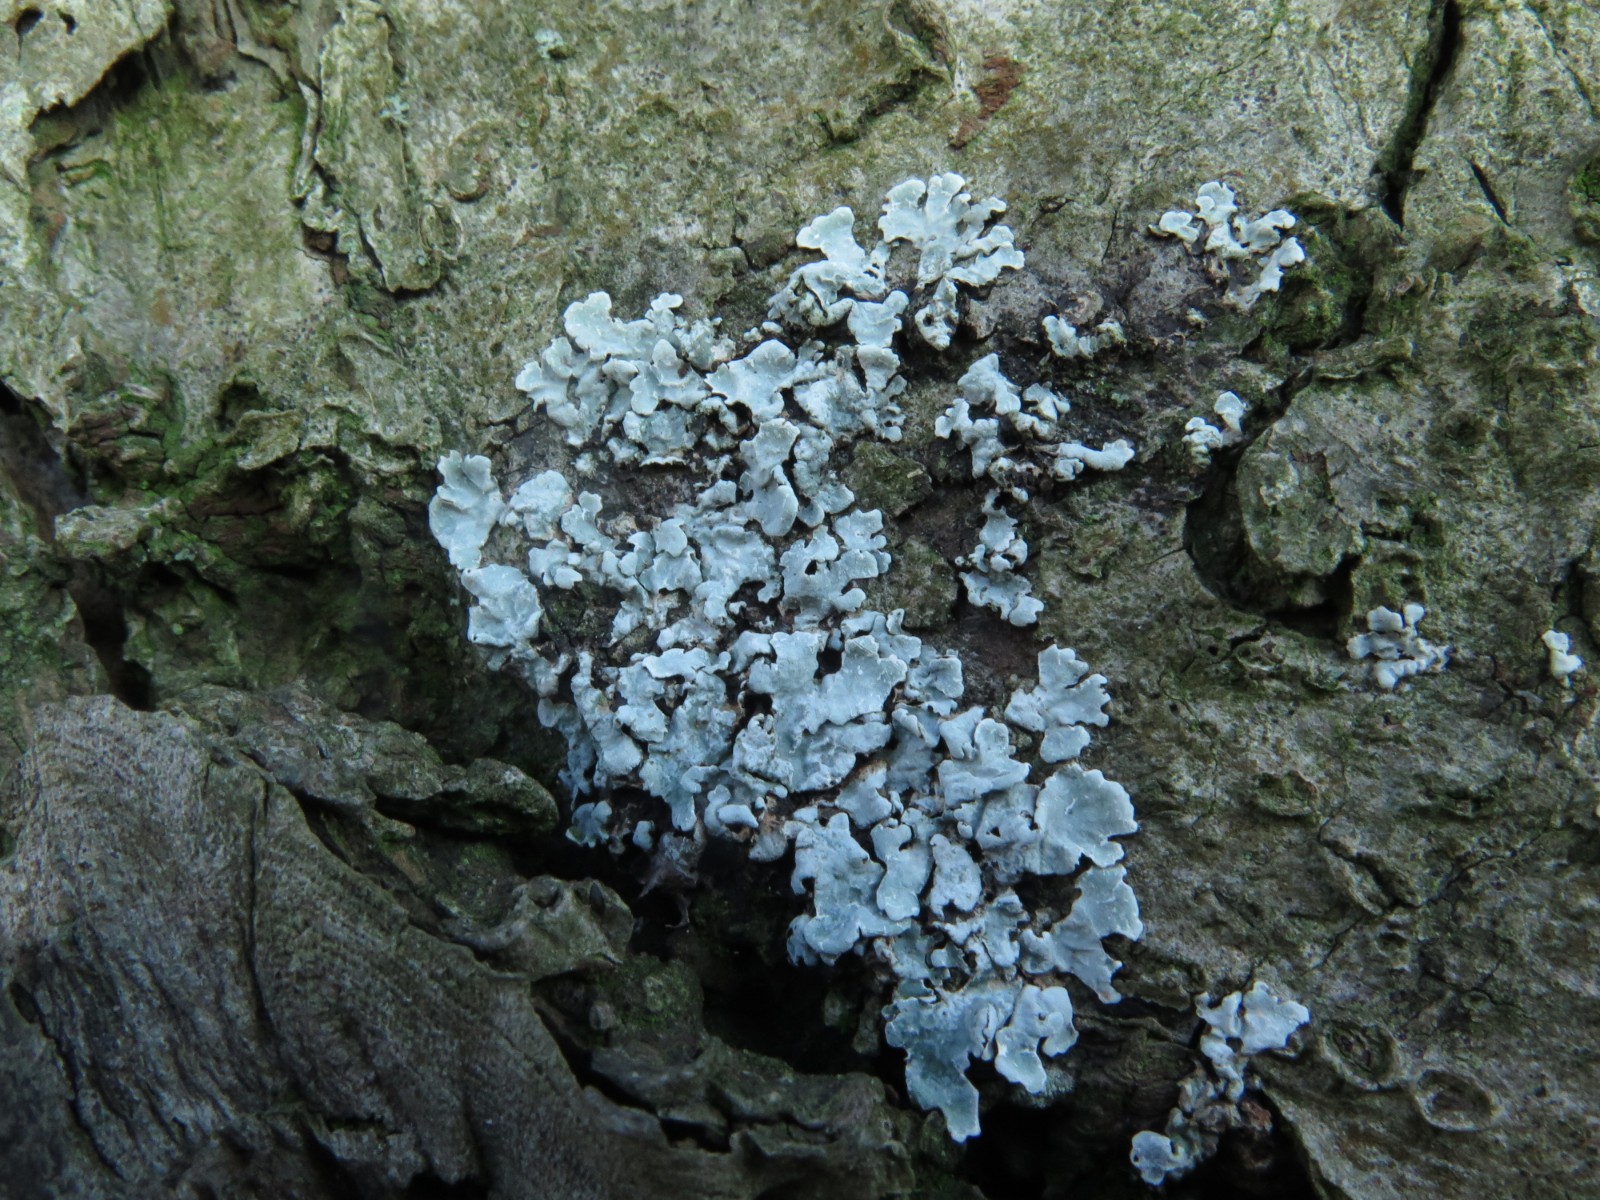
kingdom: Fungi
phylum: Ascomycota
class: Lecanoromycetes
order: Lecanorales
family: Parmeliaceae
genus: Parmelia
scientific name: Parmelia sulcata
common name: rynket skållav
